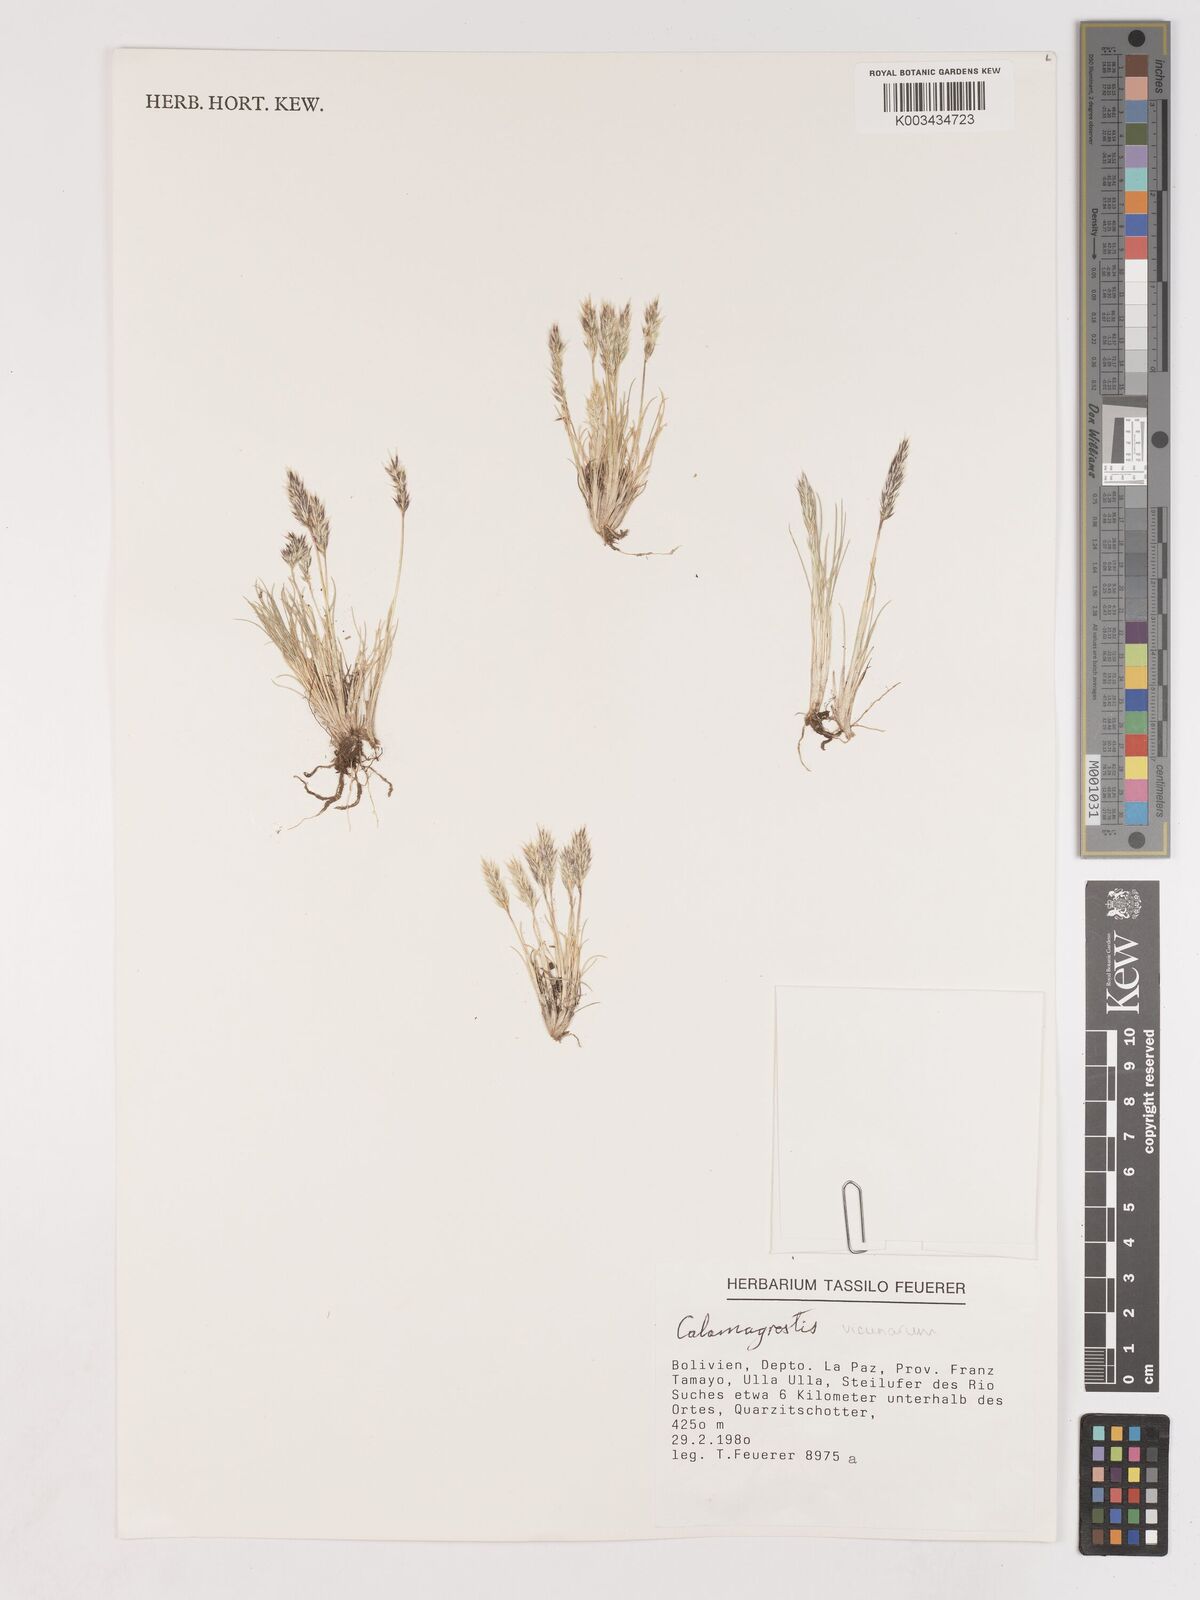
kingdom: Plantae
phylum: Tracheophyta
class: Liliopsida
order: Poales
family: Poaceae
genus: Cinnagrostis
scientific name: Cinnagrostis vicunarum
